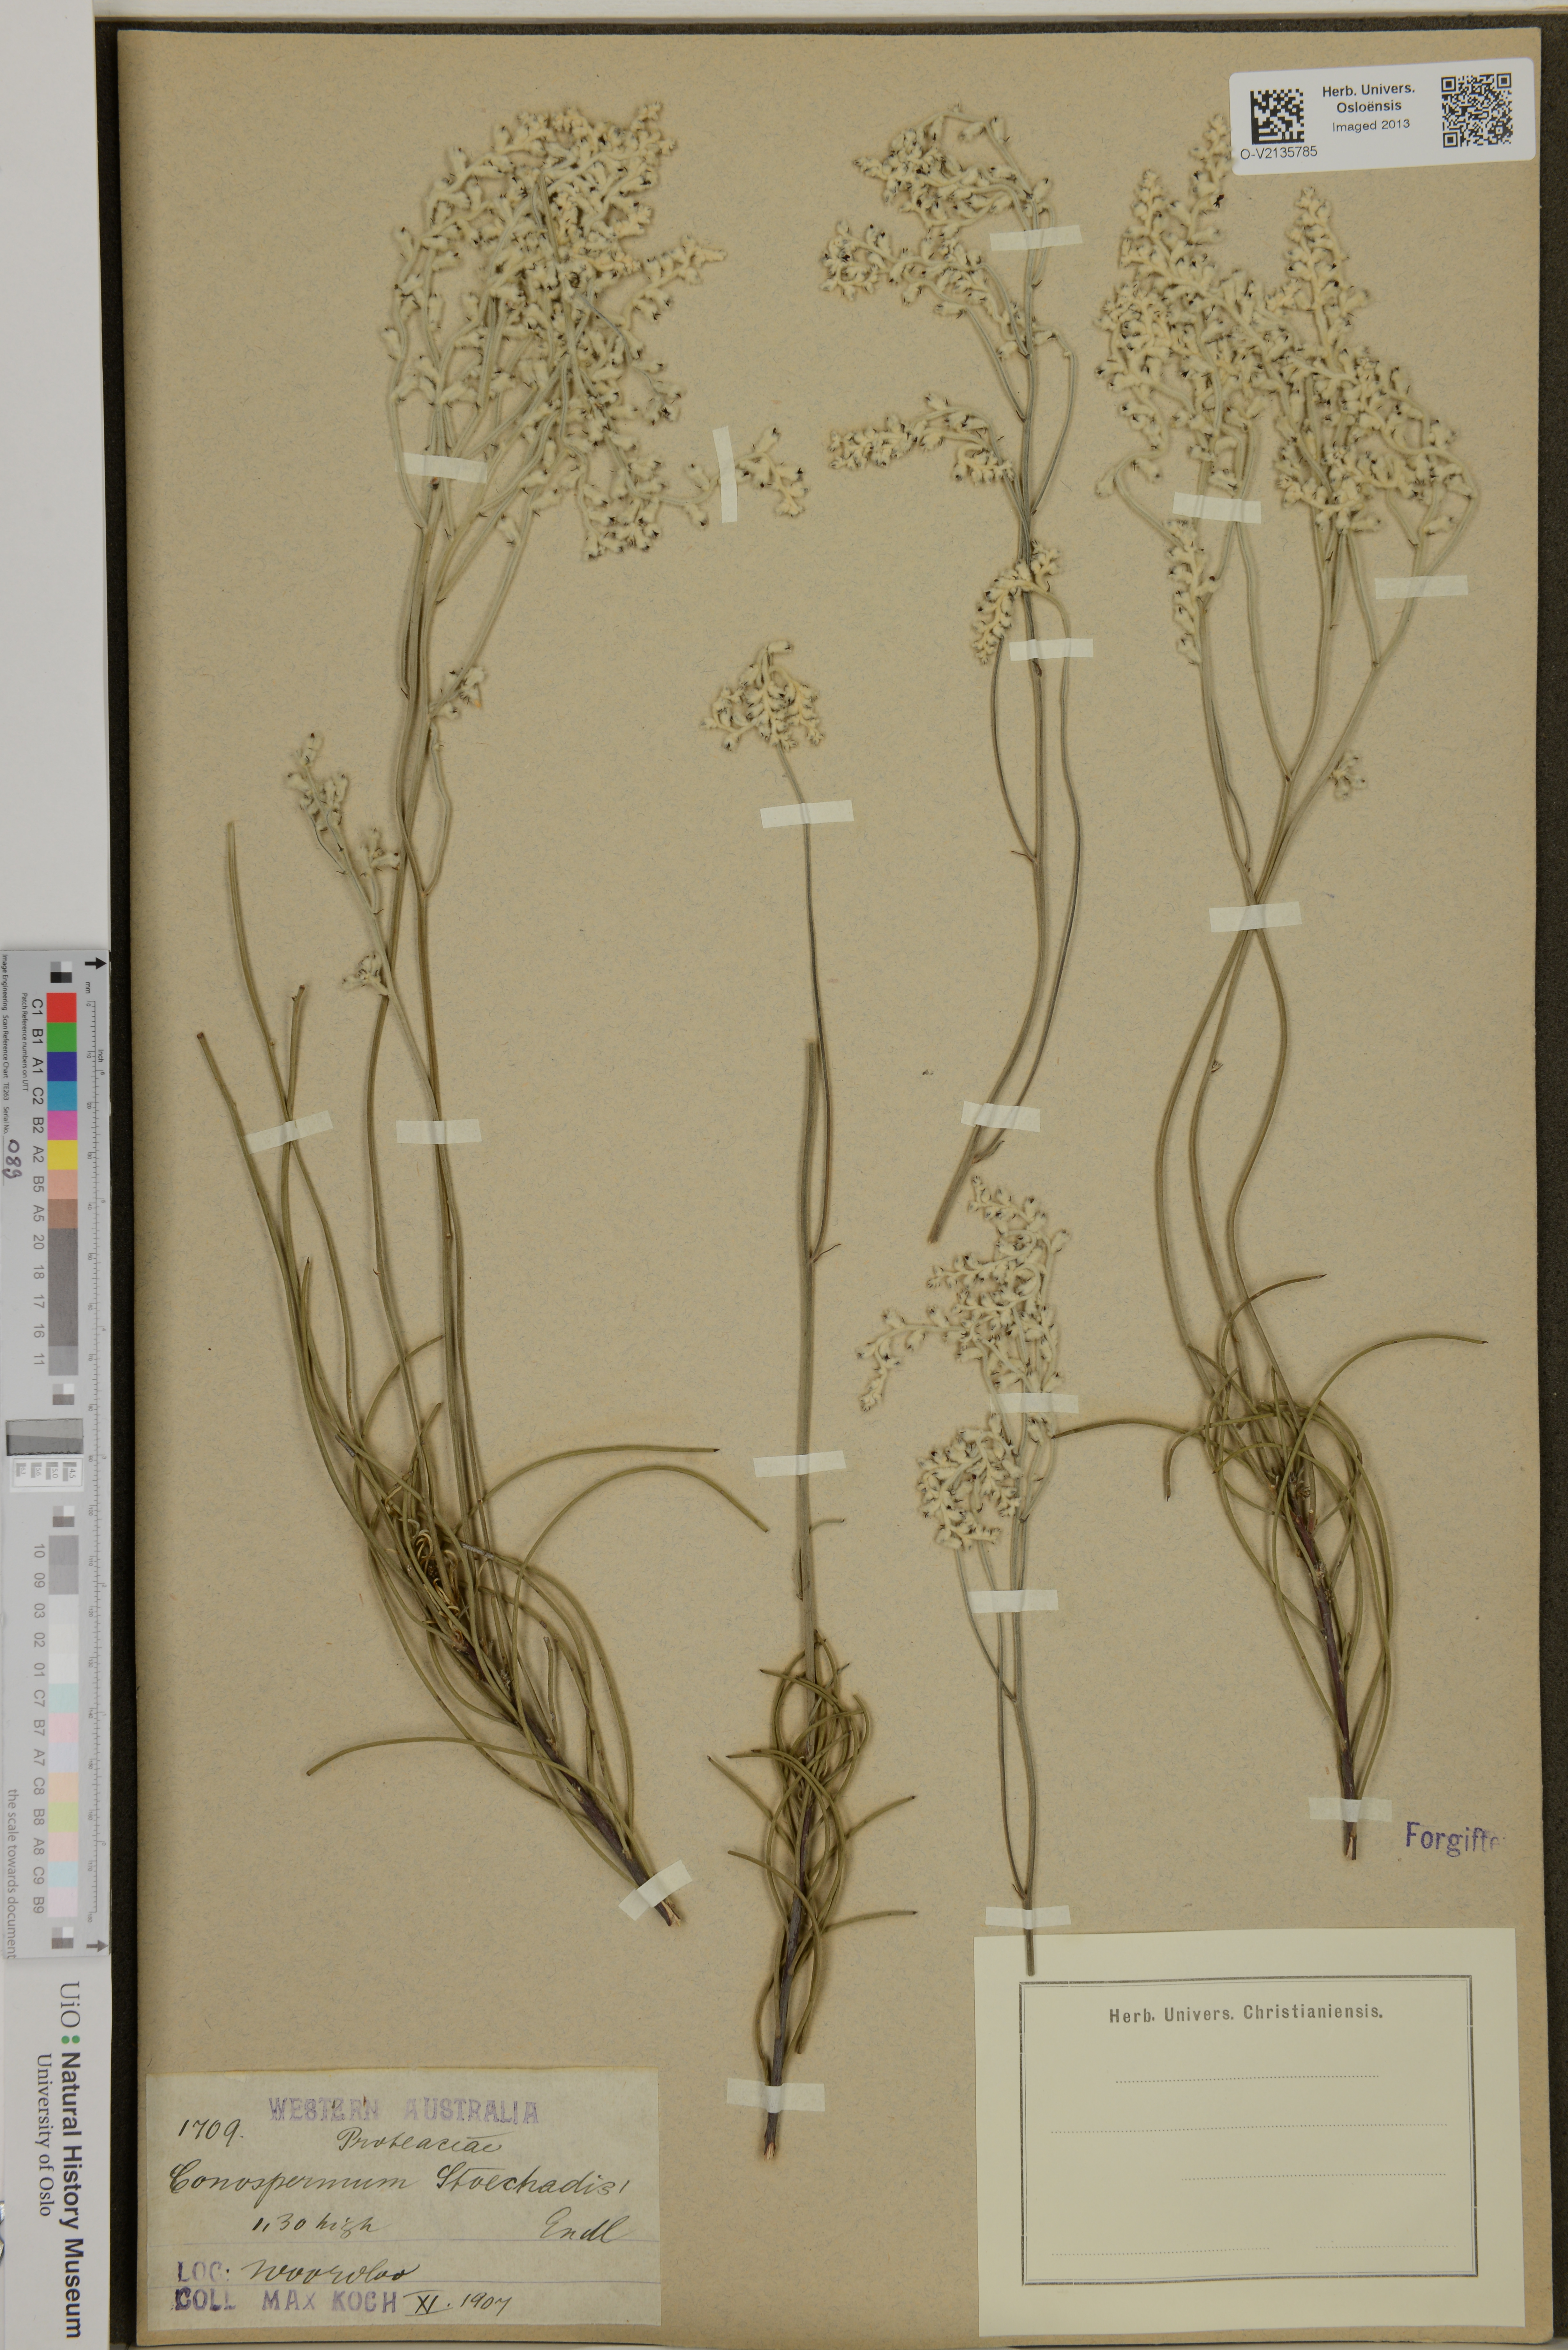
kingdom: Plantae
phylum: Tracheophyta
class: Magnoliopsida
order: Proteales
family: Proteaceae
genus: Conospermum
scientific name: Conospermum stoechadis
